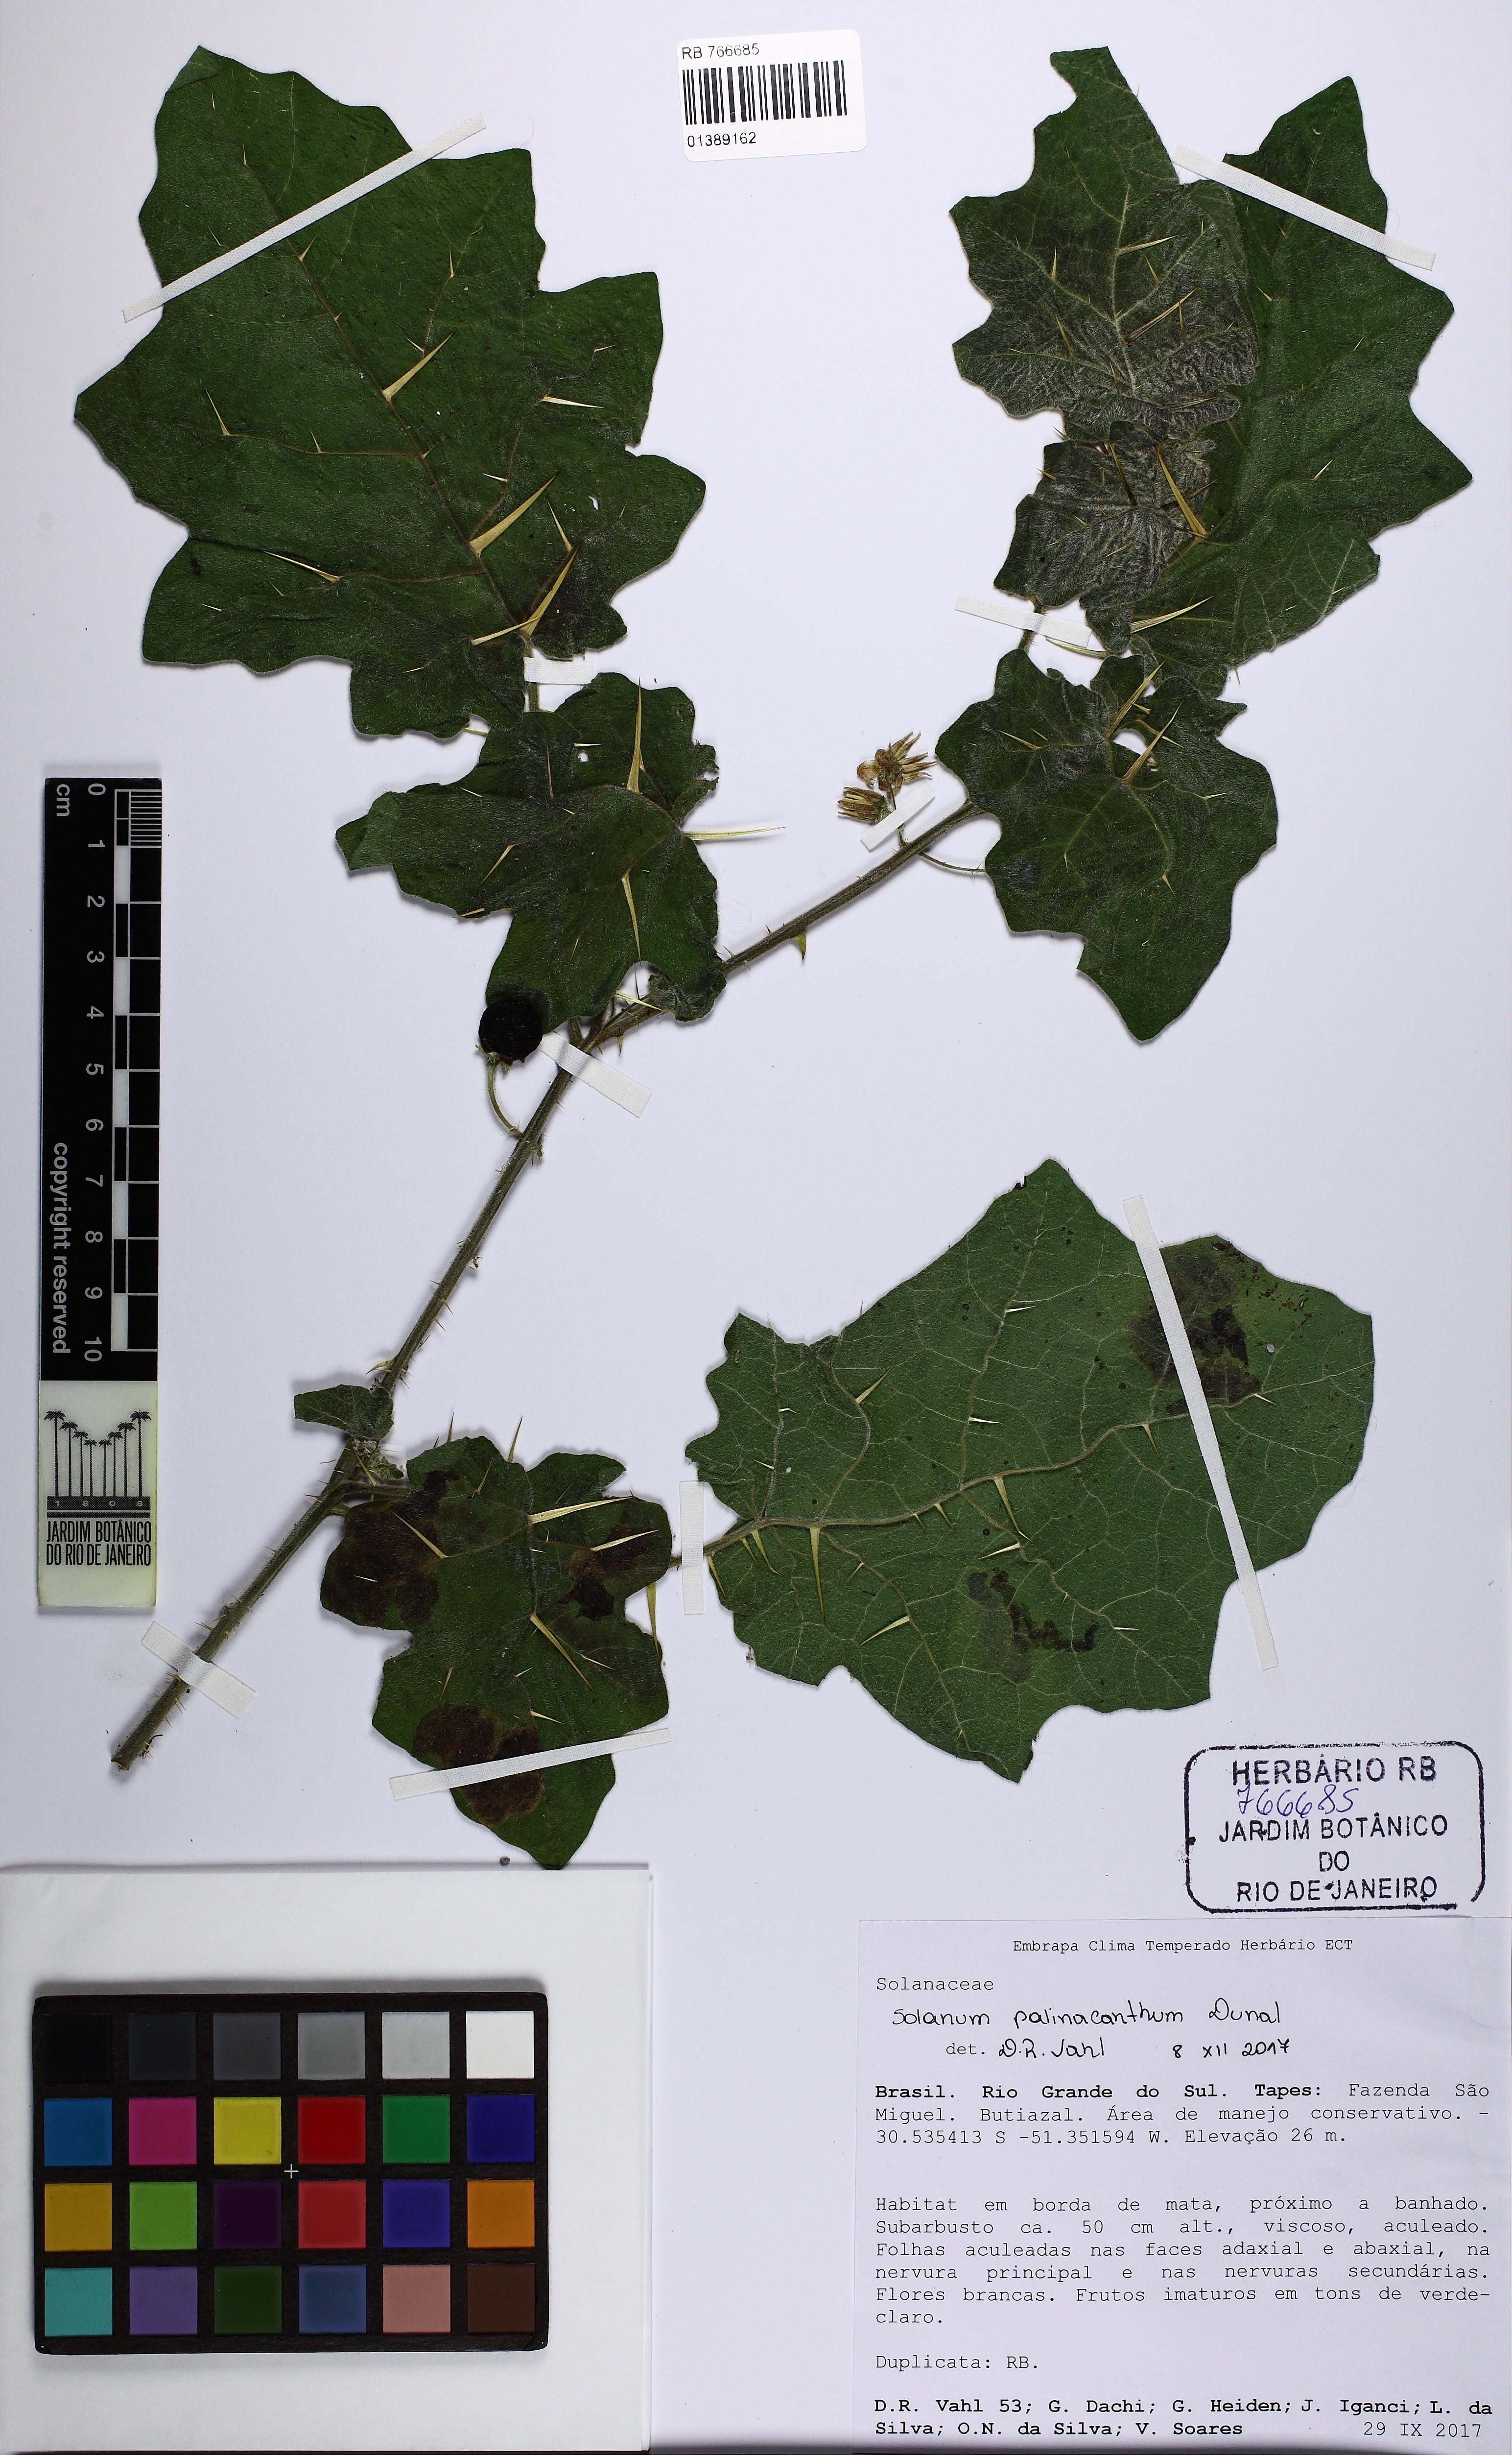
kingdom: Plantae
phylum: Tracheophyta
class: Magnoliopsida
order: Solanales
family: Solanaceae
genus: Solanum
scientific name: Solanum palinacanthum
